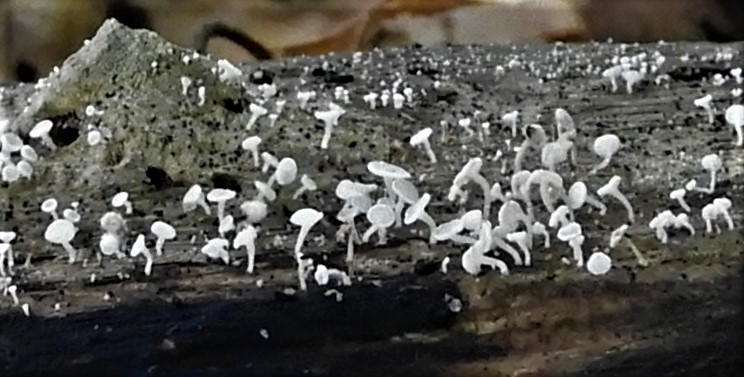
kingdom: Fungi
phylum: Ascomycota
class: Leotiomycetes
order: Helotiales
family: Lachnaceae
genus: Lachnum
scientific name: Lachnum
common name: frynseskive
